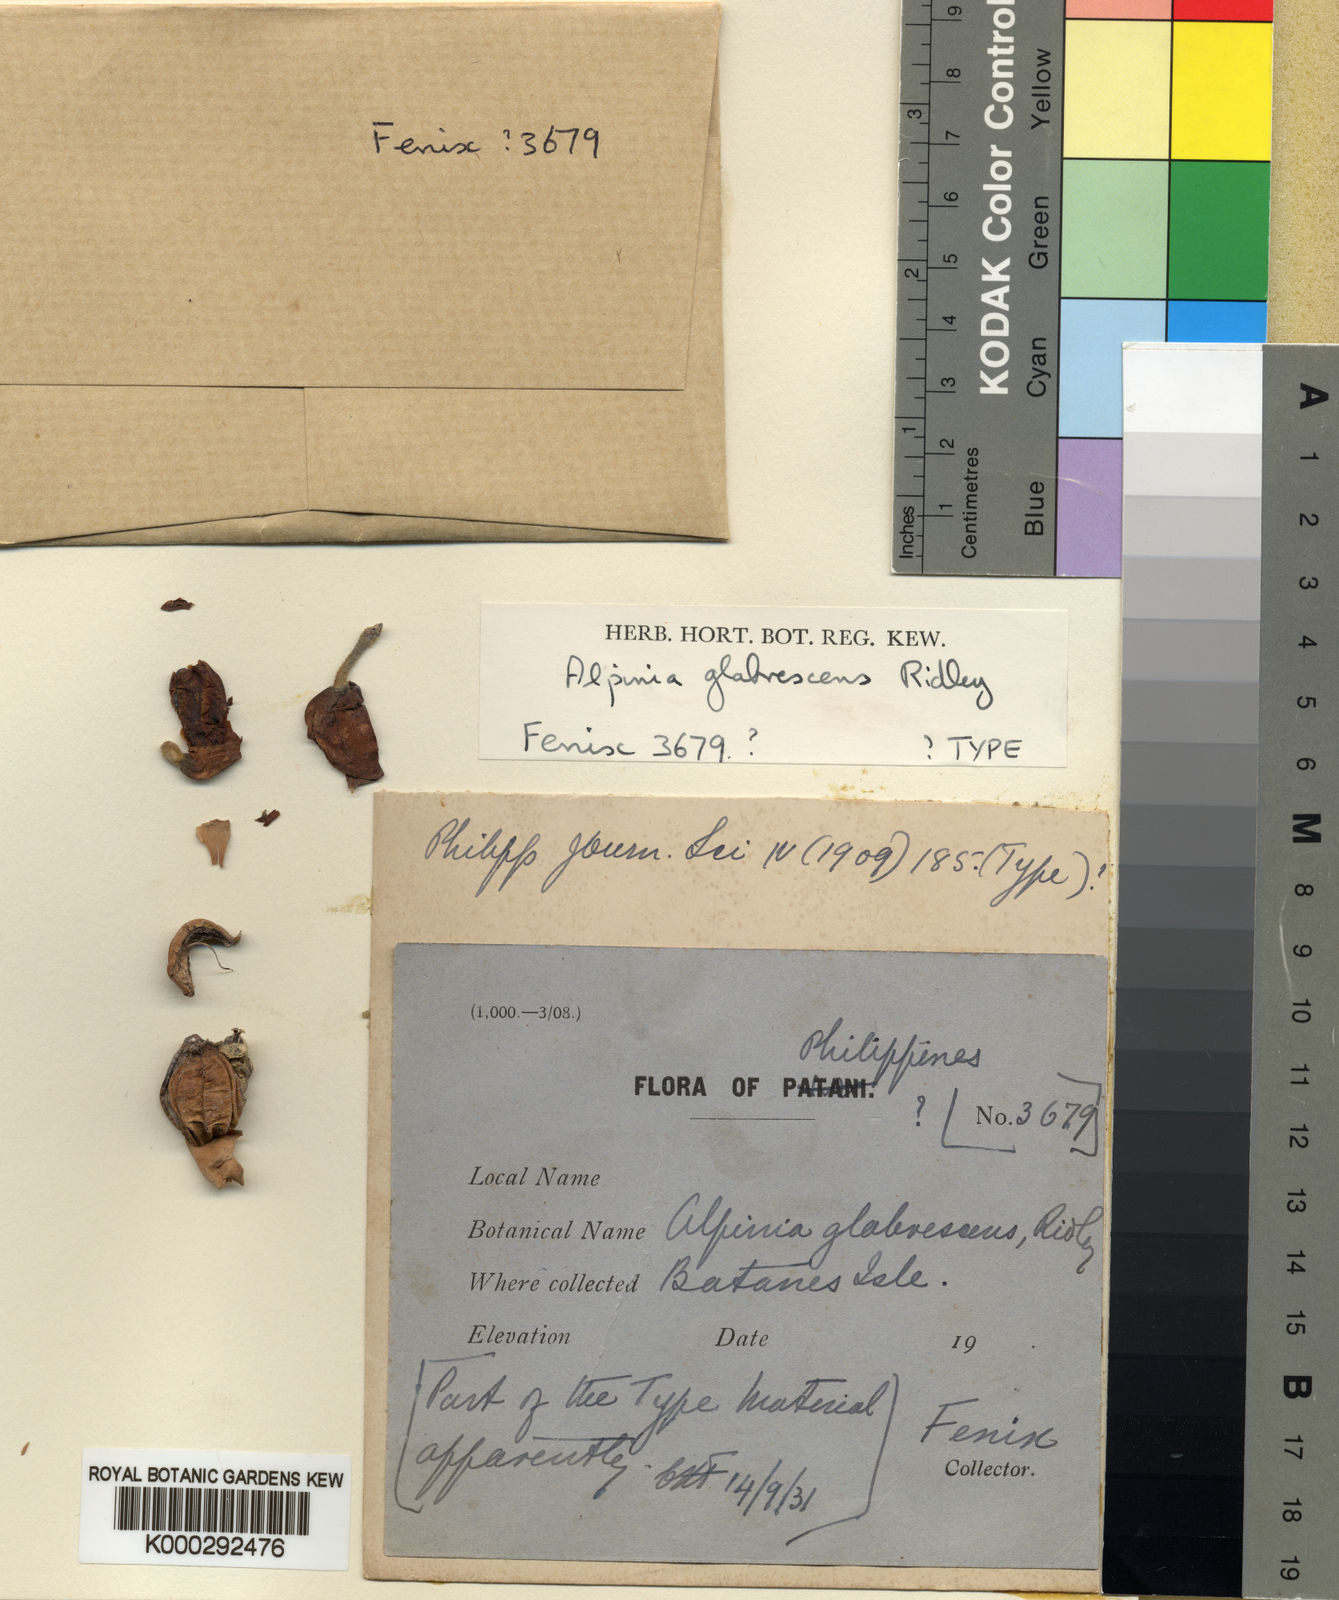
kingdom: Plantae
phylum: Tracheophyta
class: Liliopsida
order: Zingiberales
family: Zingiberaceae
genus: Alpinia
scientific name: Alpinia glabrescens
